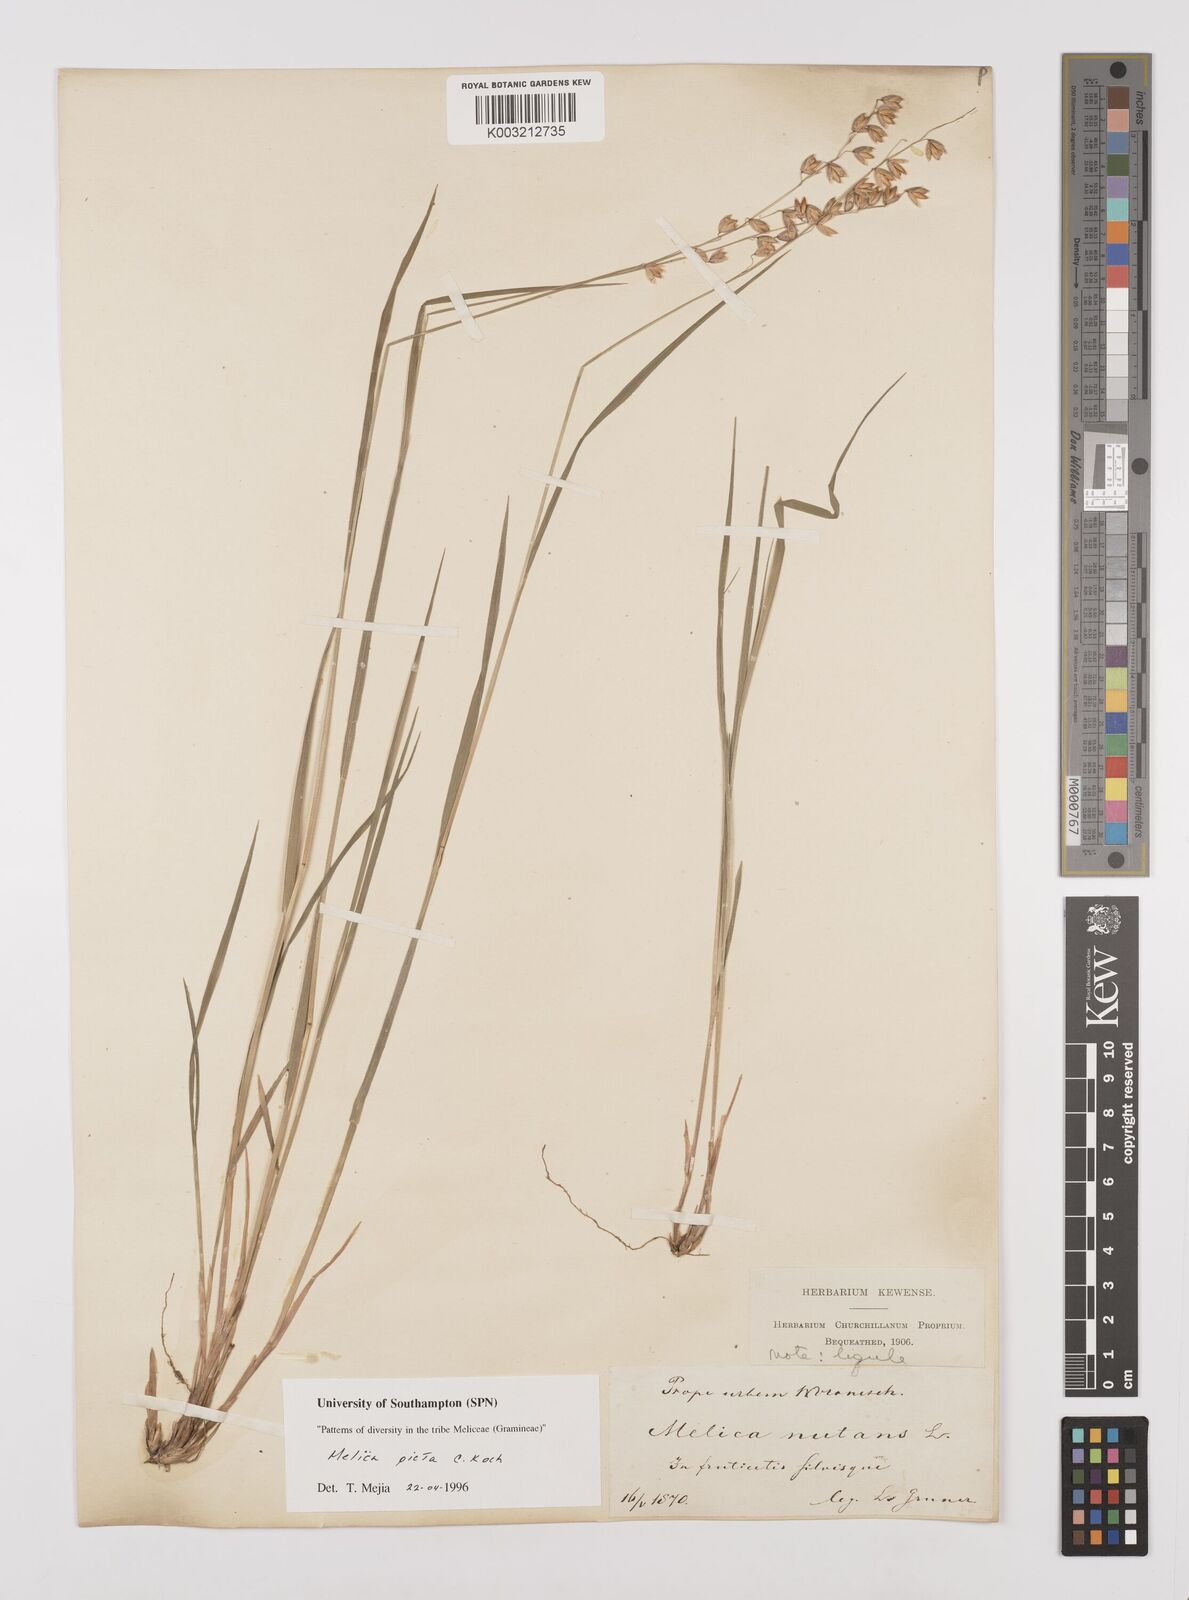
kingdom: Plantae
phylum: Tracheophyta
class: Liliopsida
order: Poales
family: Poaceae
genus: Melica
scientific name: Melica picta
